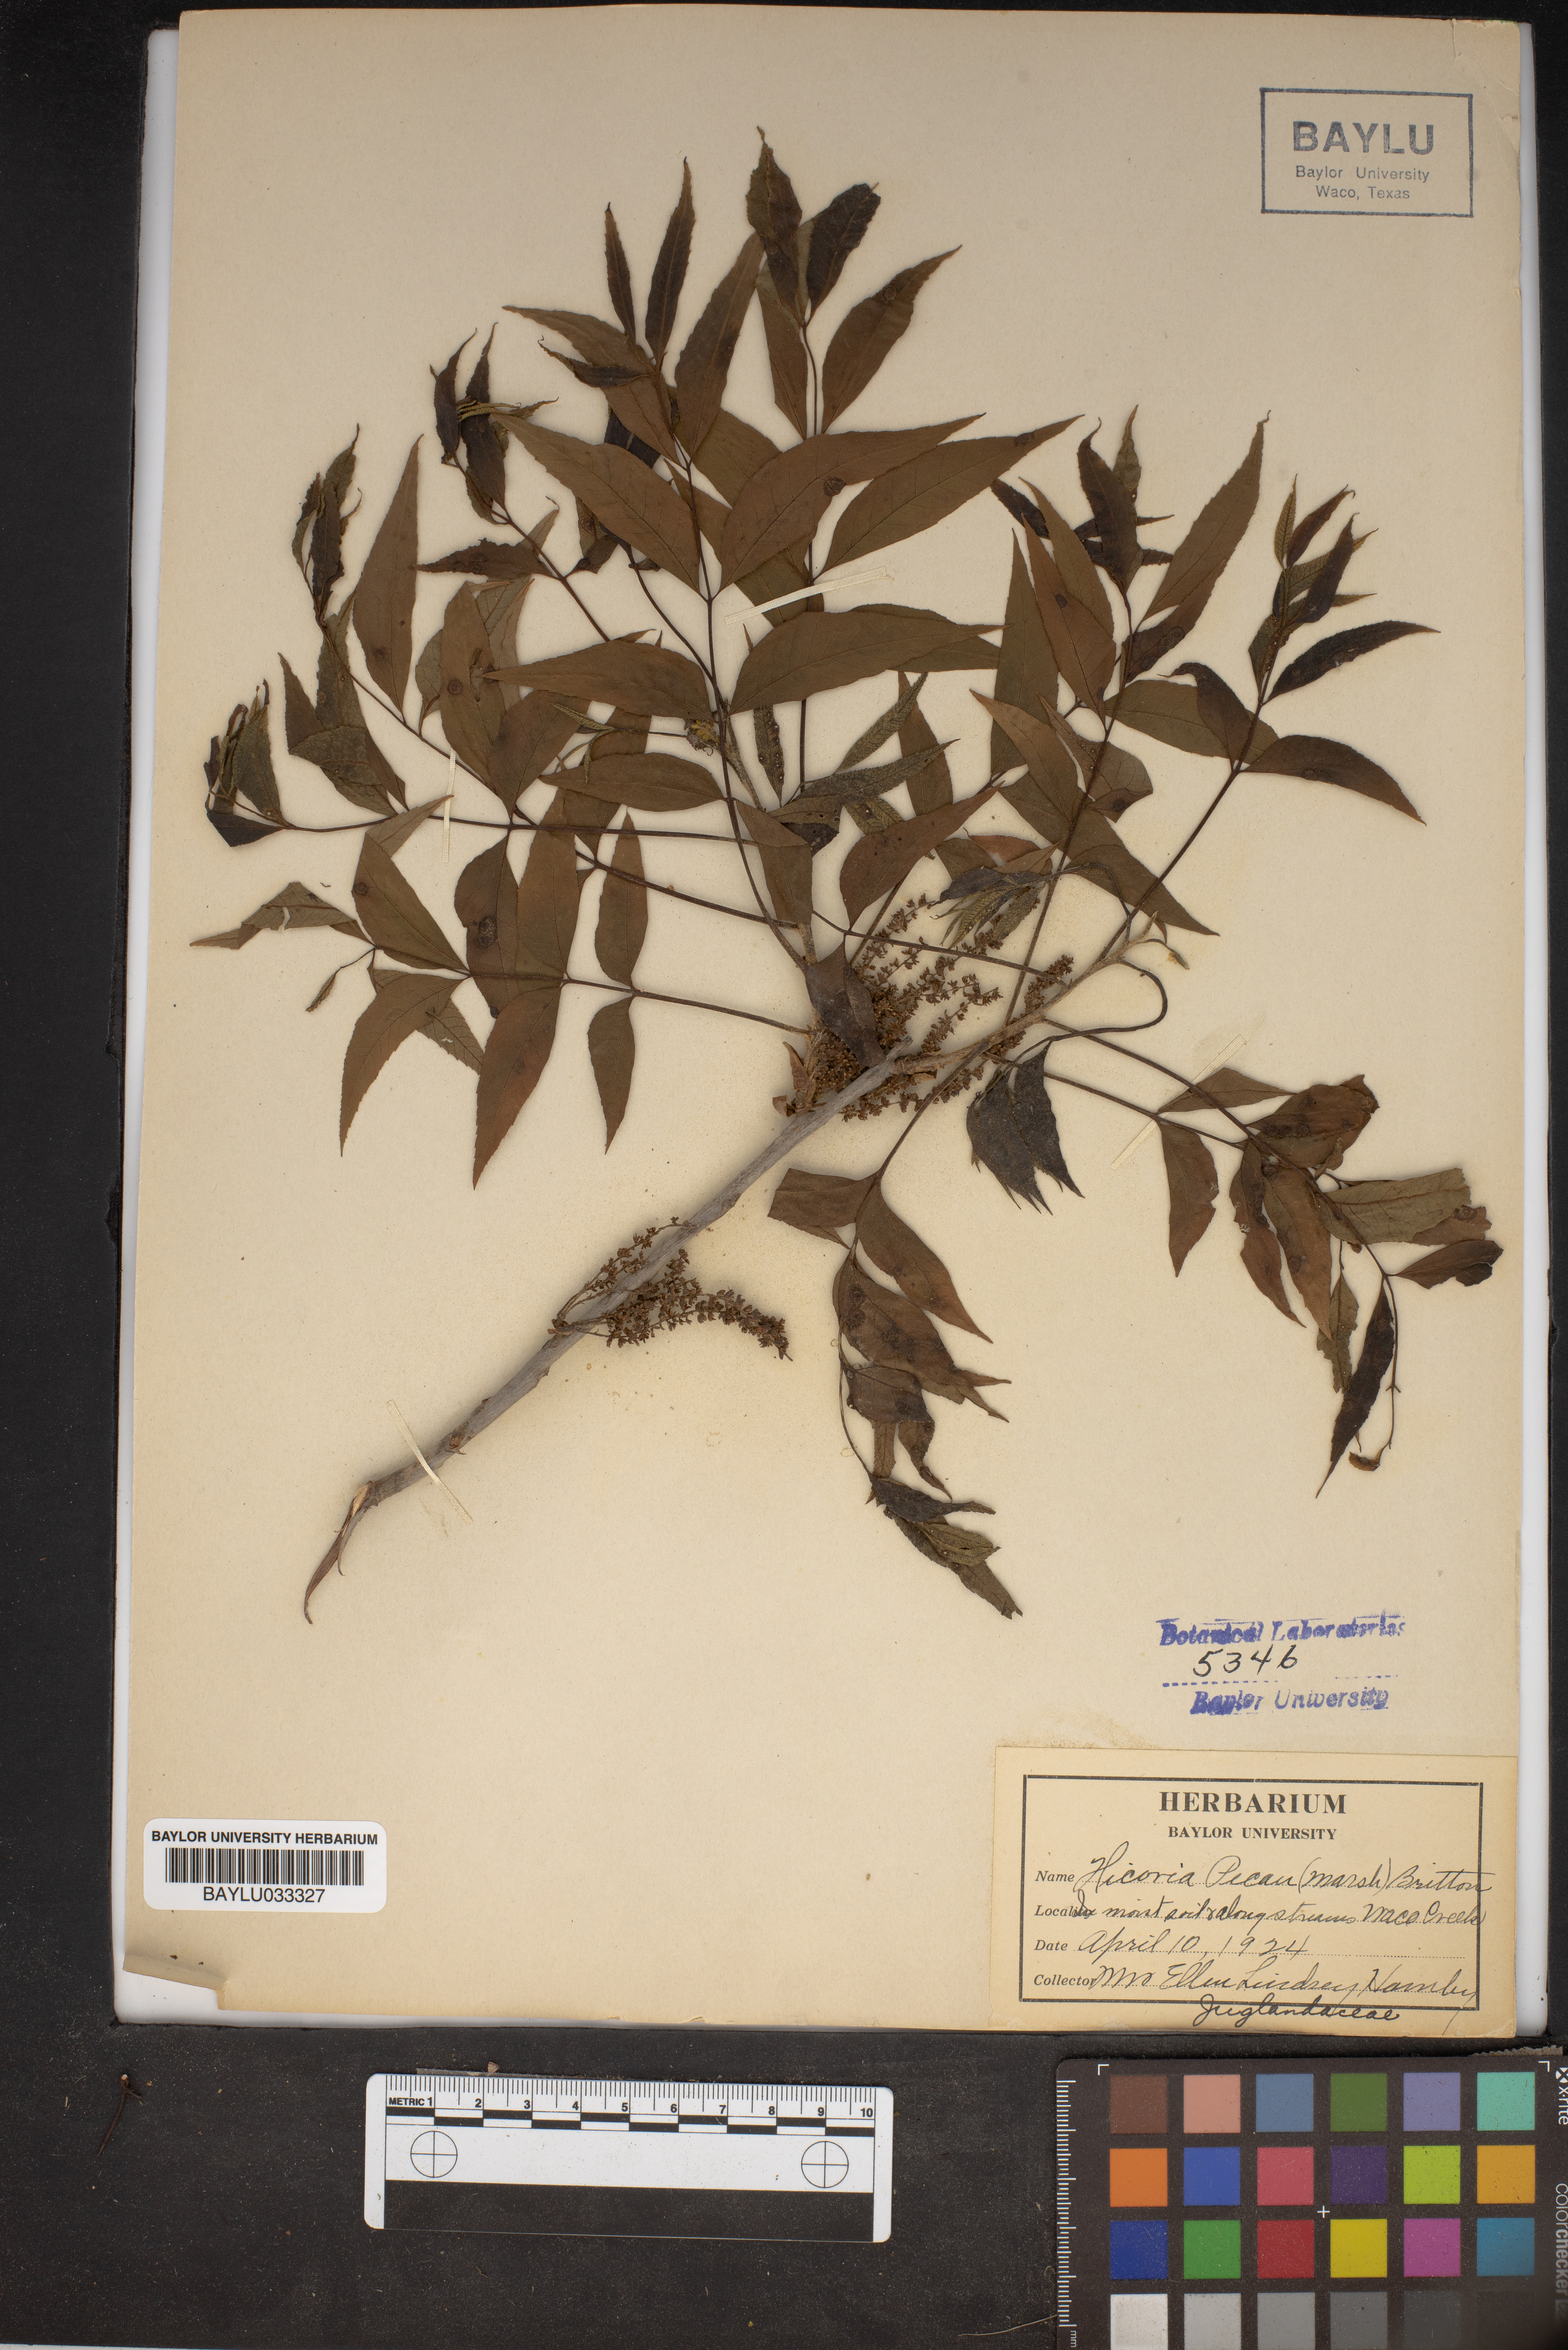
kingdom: Plantae
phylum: Tracheophyta
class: Magnoliopsida
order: Fagales
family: Juglandaceae
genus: Carya
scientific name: Carya illinoinensis
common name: Pecan
